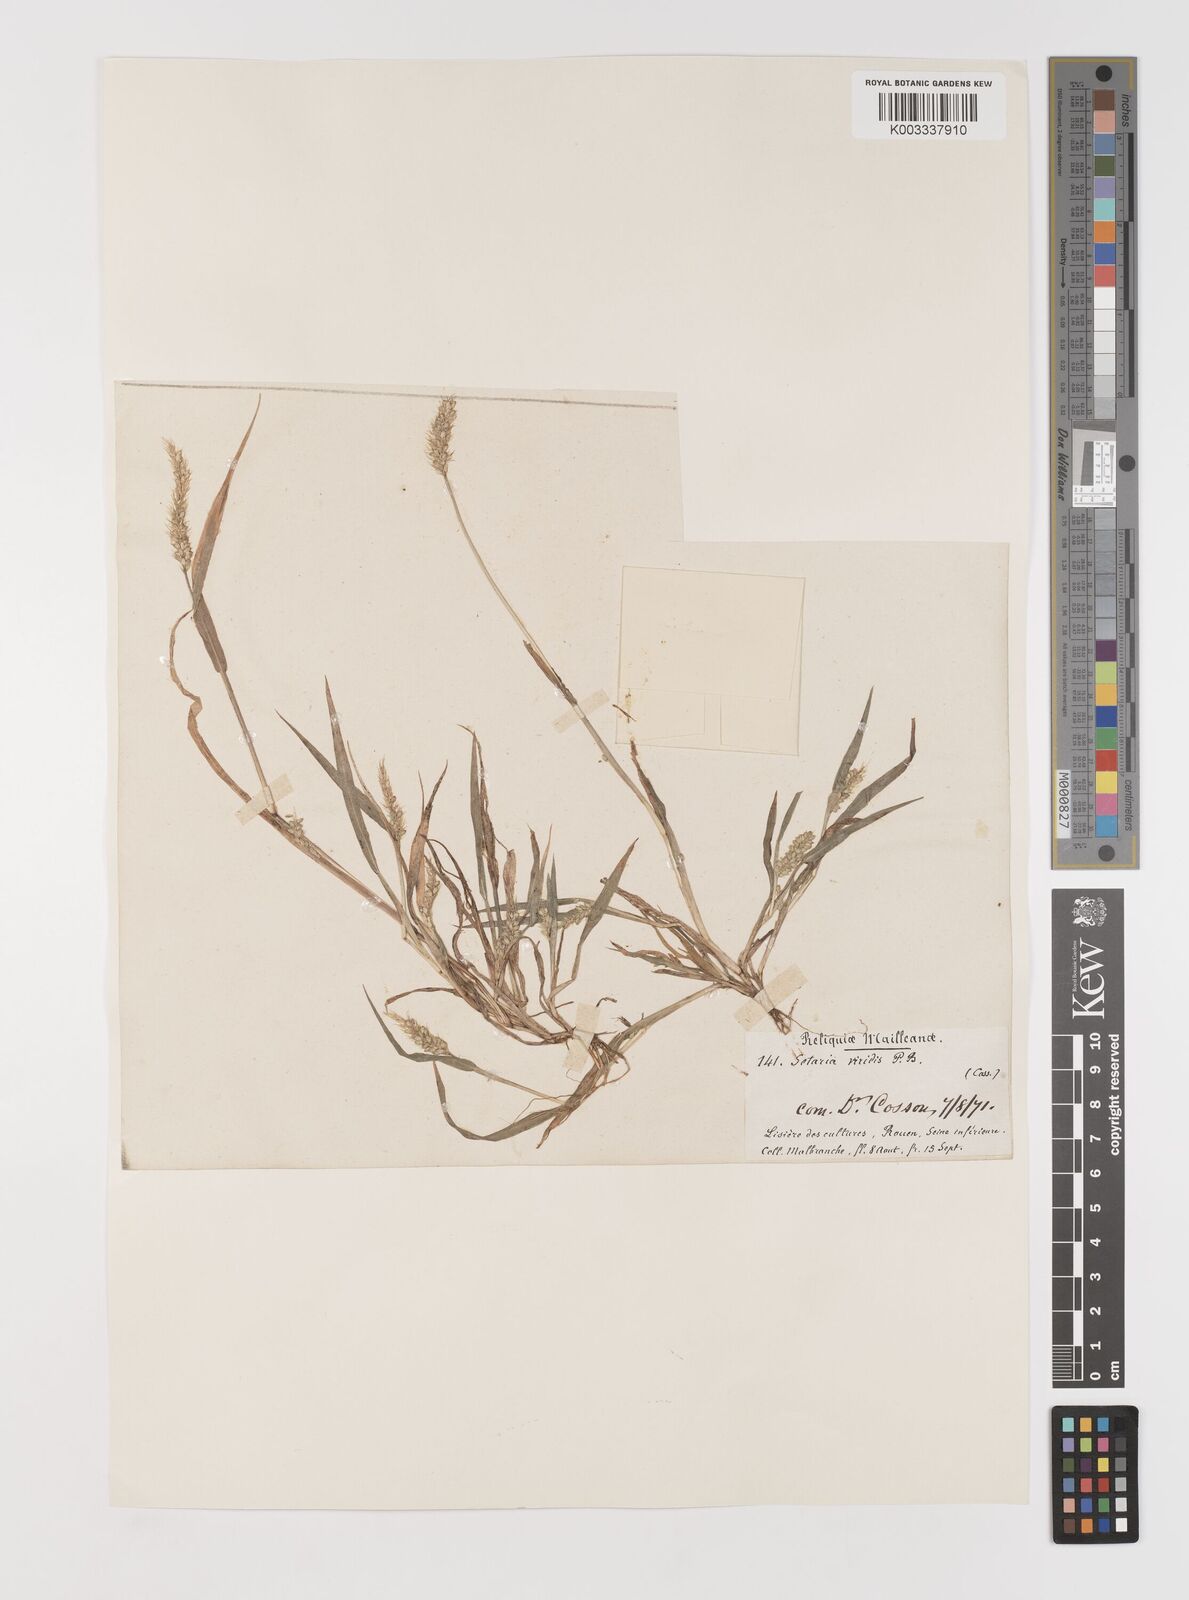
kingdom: Plantae
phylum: Tracheophyta
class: Liliopsida
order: Poales
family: Poaceae
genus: Setaria
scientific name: Setaria viridis
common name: Green bristlegrass
